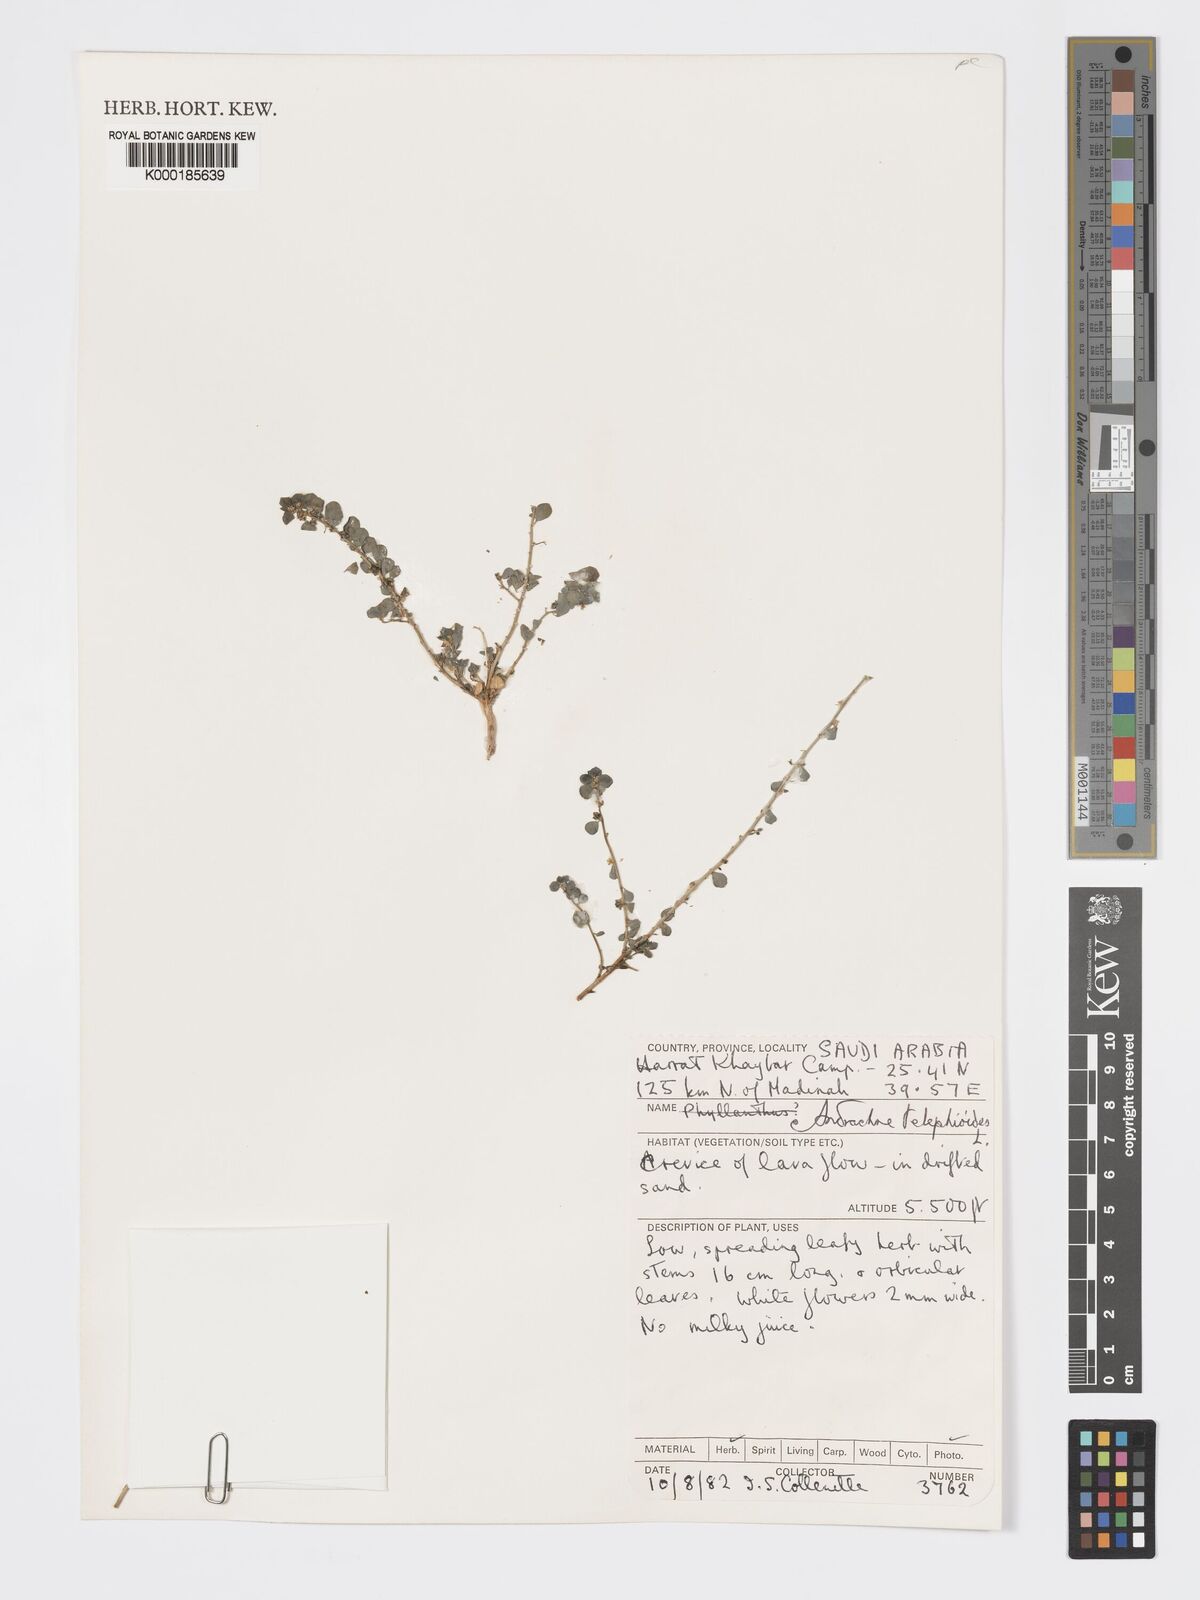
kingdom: Plantae
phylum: Tracheophyta
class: Magnoliopsida
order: Malpighiales
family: Phyllanthaceae
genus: Andrachne
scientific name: Andrachne telephioides
